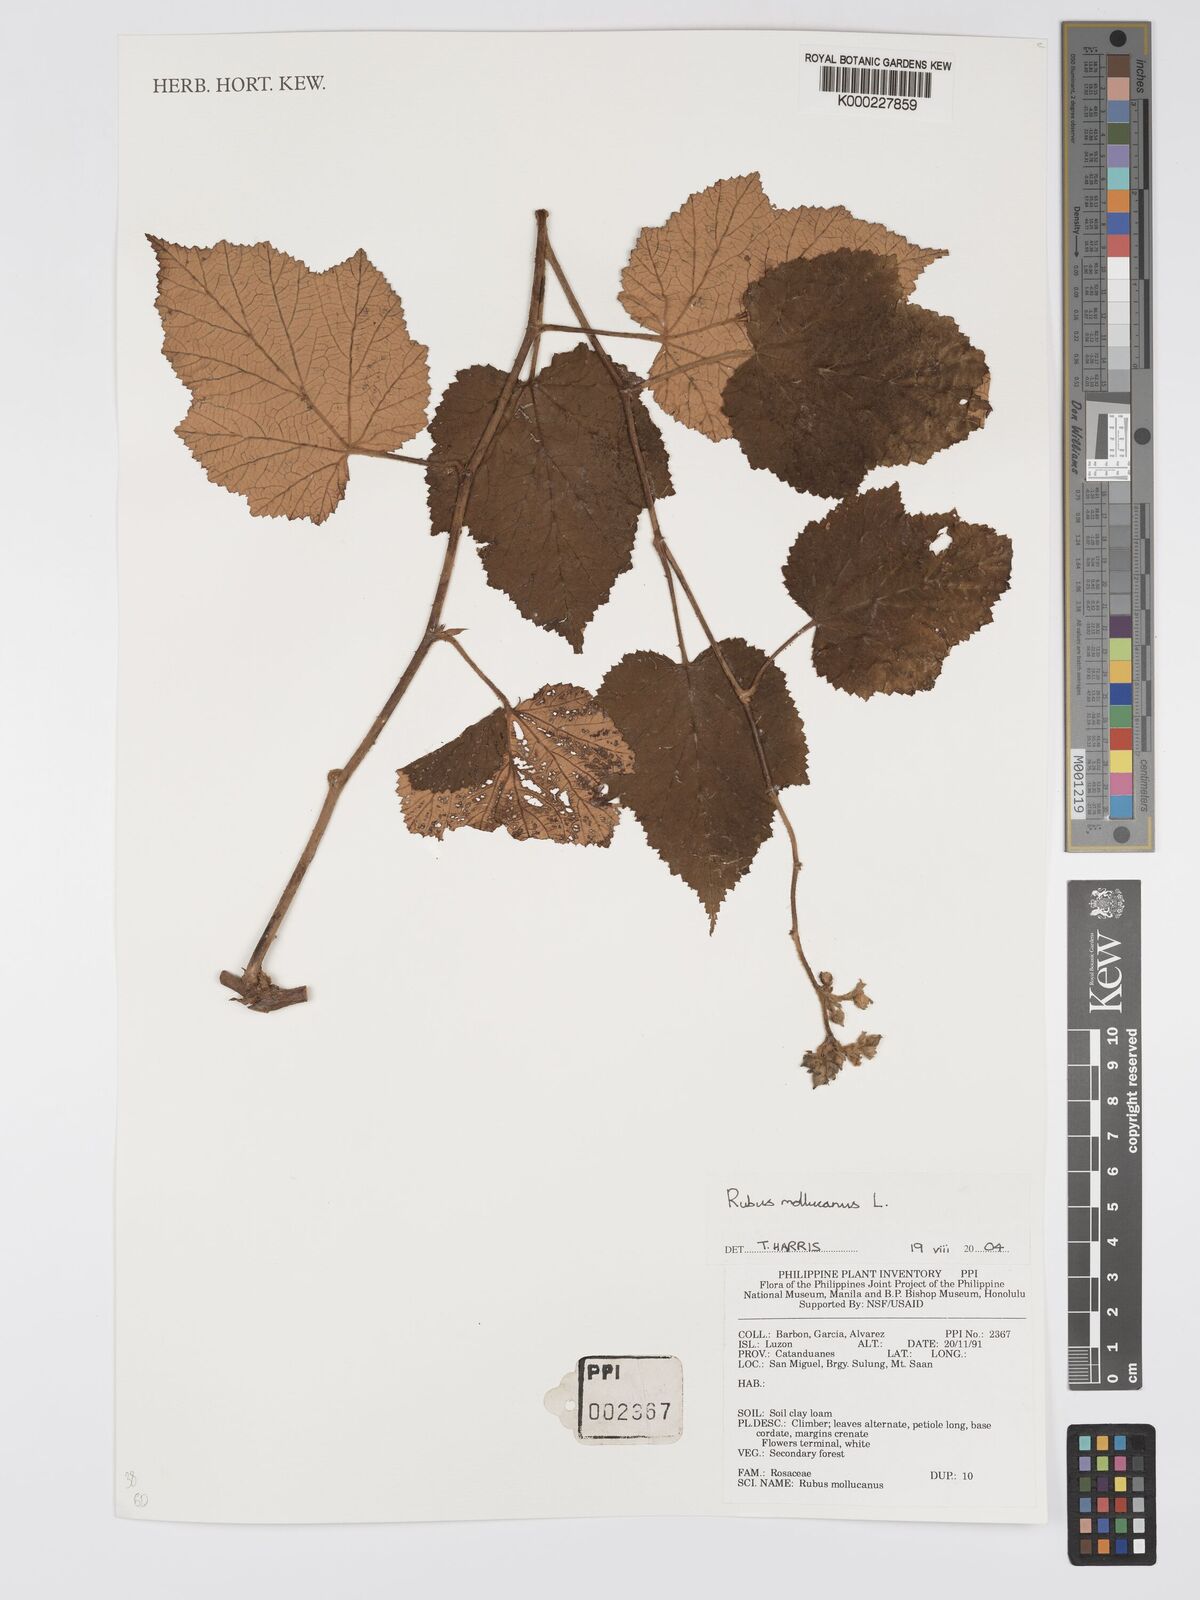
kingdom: Plantae
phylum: Tracheophyta
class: Magnoliopsida
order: Rosales
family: Rosaceae
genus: Rubus
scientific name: Rubus moluccanus
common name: Wild raspberry
